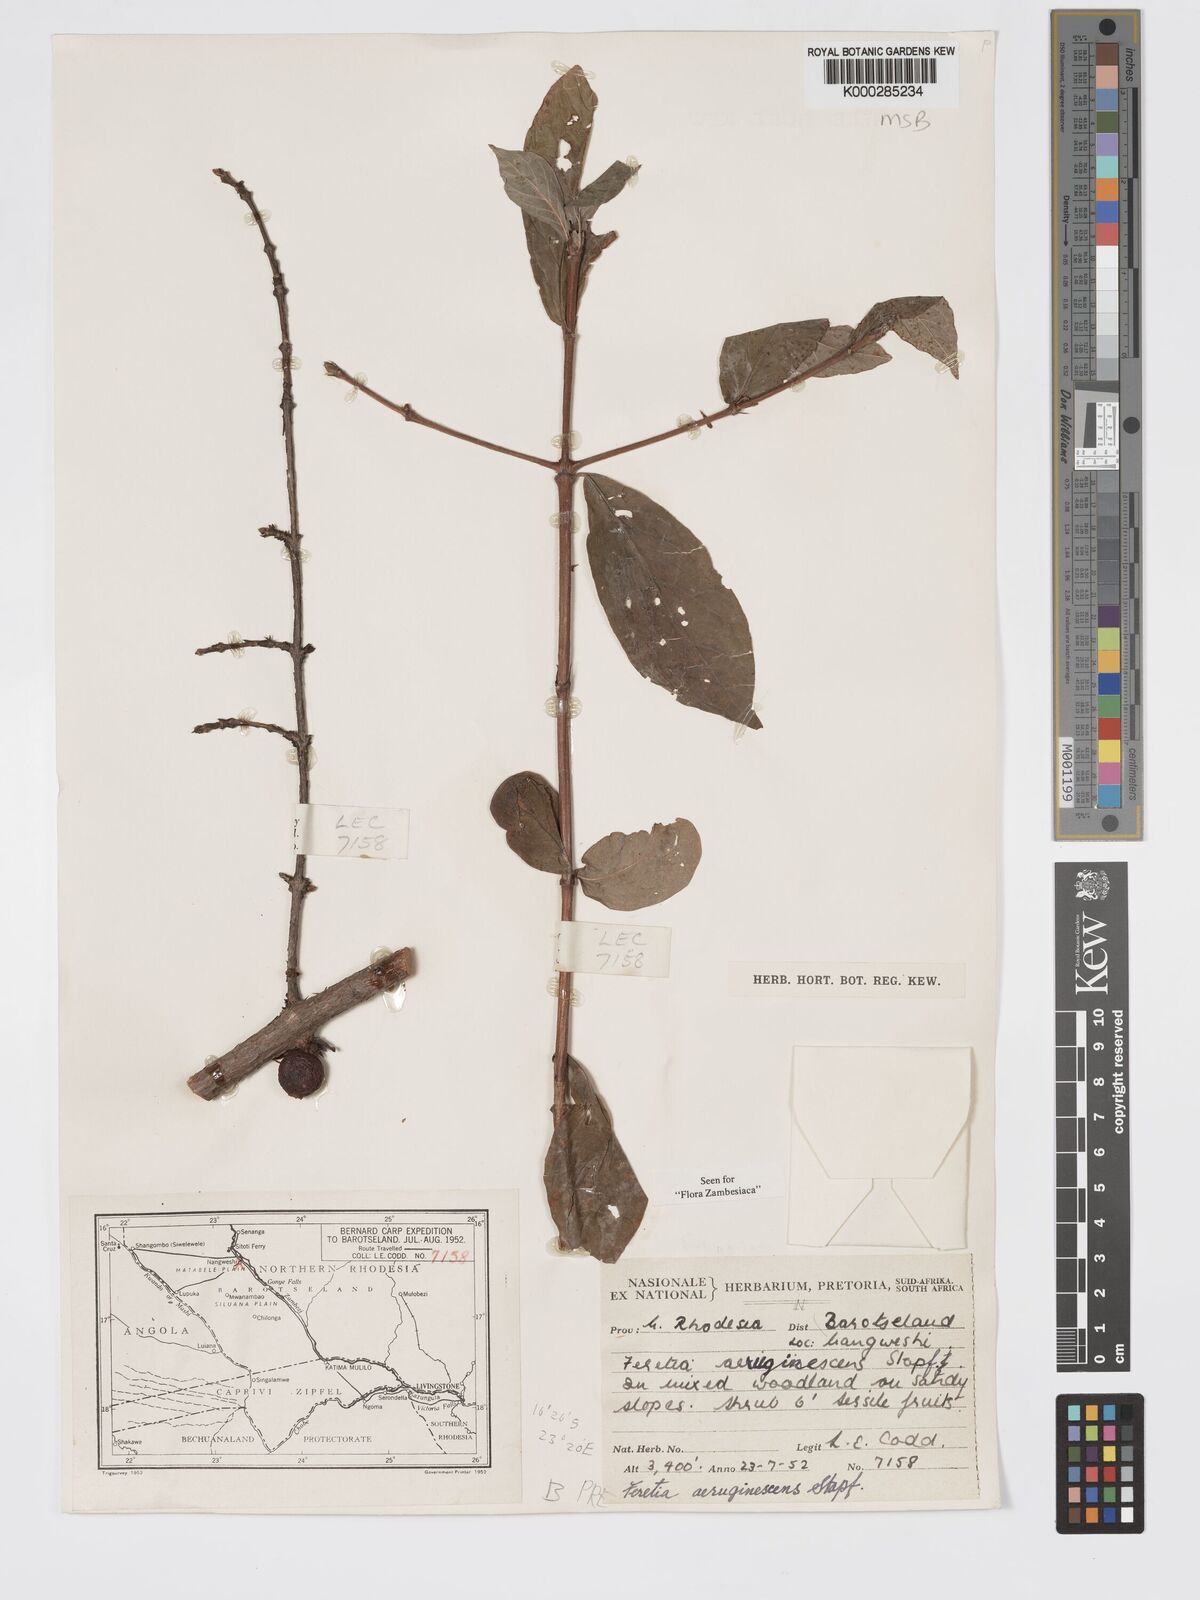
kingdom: Plantae
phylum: Tracheophyta
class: Magnoliopsida
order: Gentianales
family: Rubiaceae
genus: Feretia
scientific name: Feretia aeruginescens
